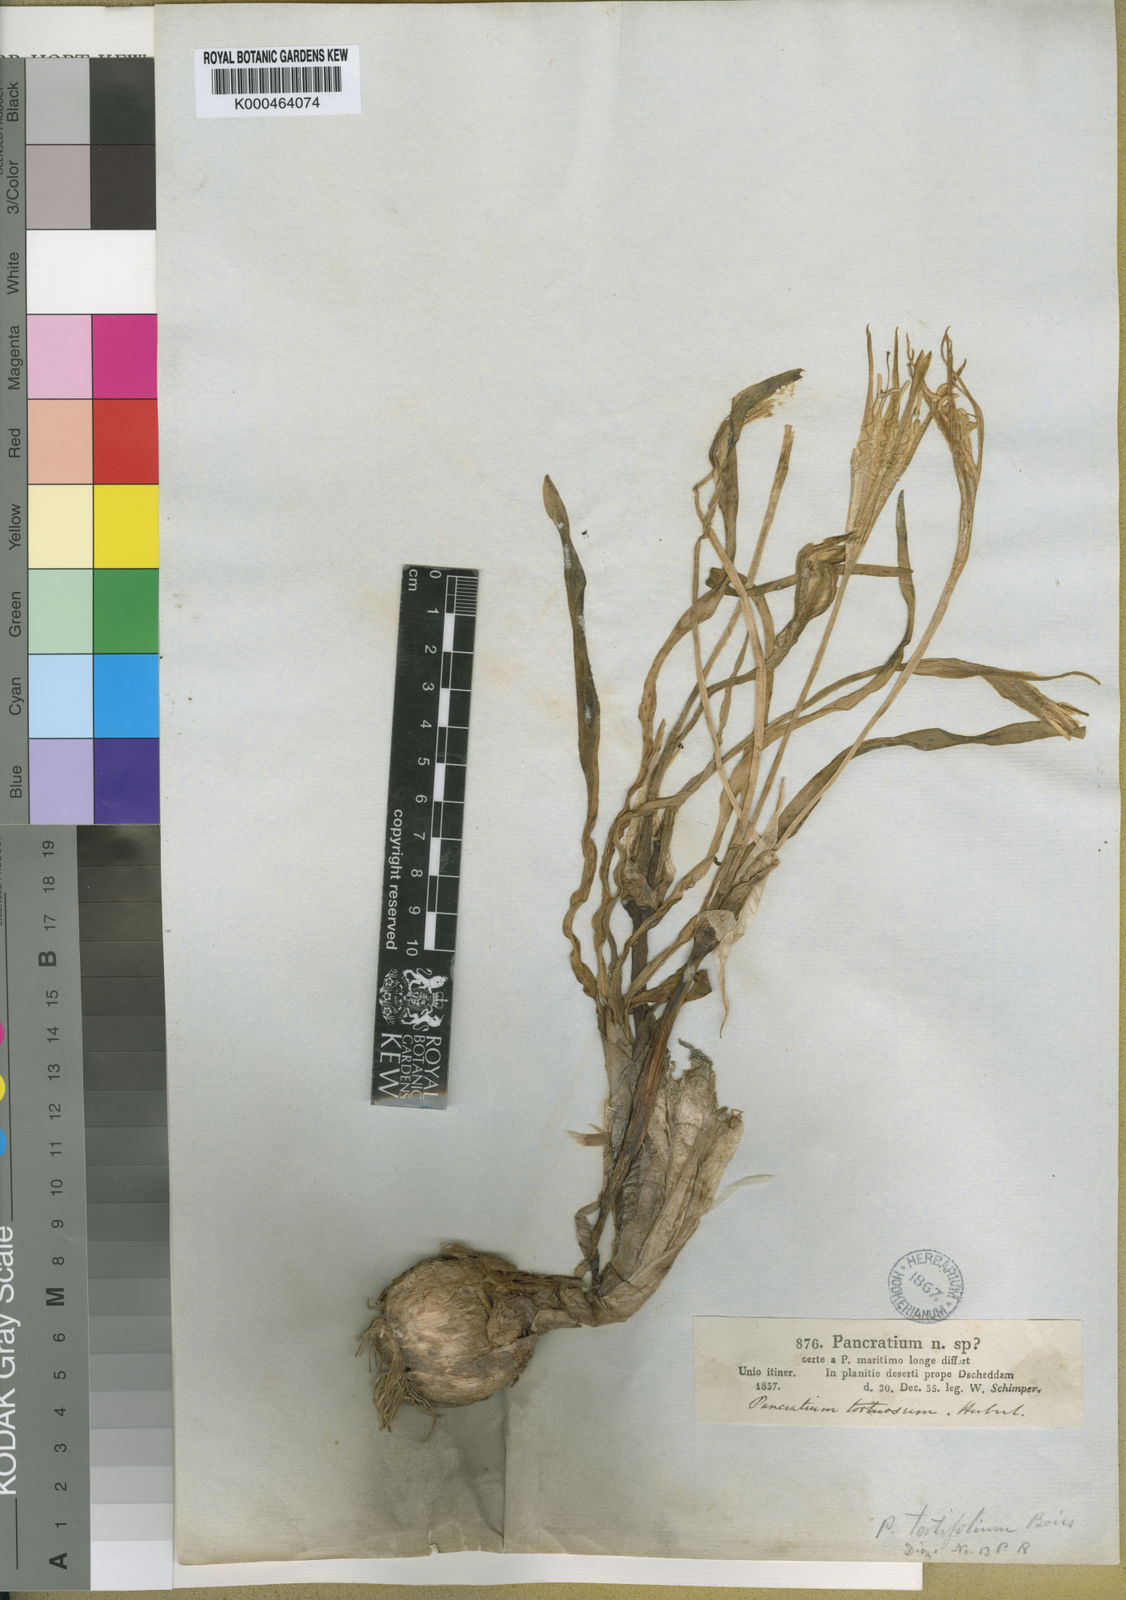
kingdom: Plantae
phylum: Tracheophyta
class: Liliopsida
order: Asparagales
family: Amaryllidaceae
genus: Pancratium
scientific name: Pancratium tortuosum
